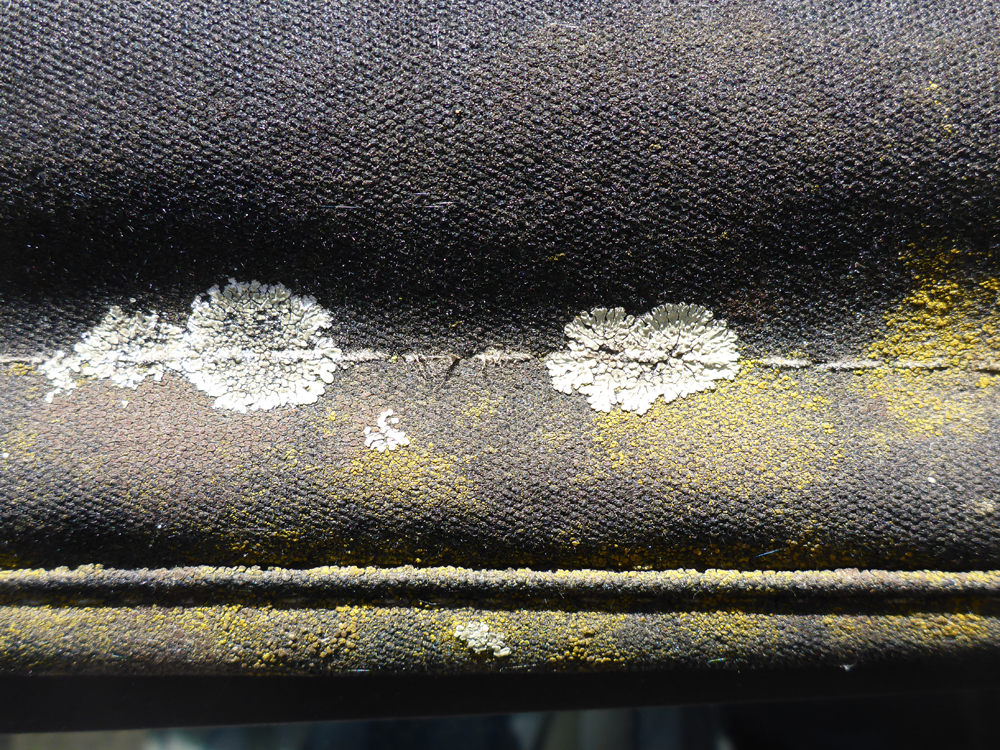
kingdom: Fungi
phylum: Ascomycota
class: Lecanoromycetes
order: Lecanorales
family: Lecanoraceae
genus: Protoparmeliopsis
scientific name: Protoparmeliopsis muralis
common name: Stonewall rim lichen
